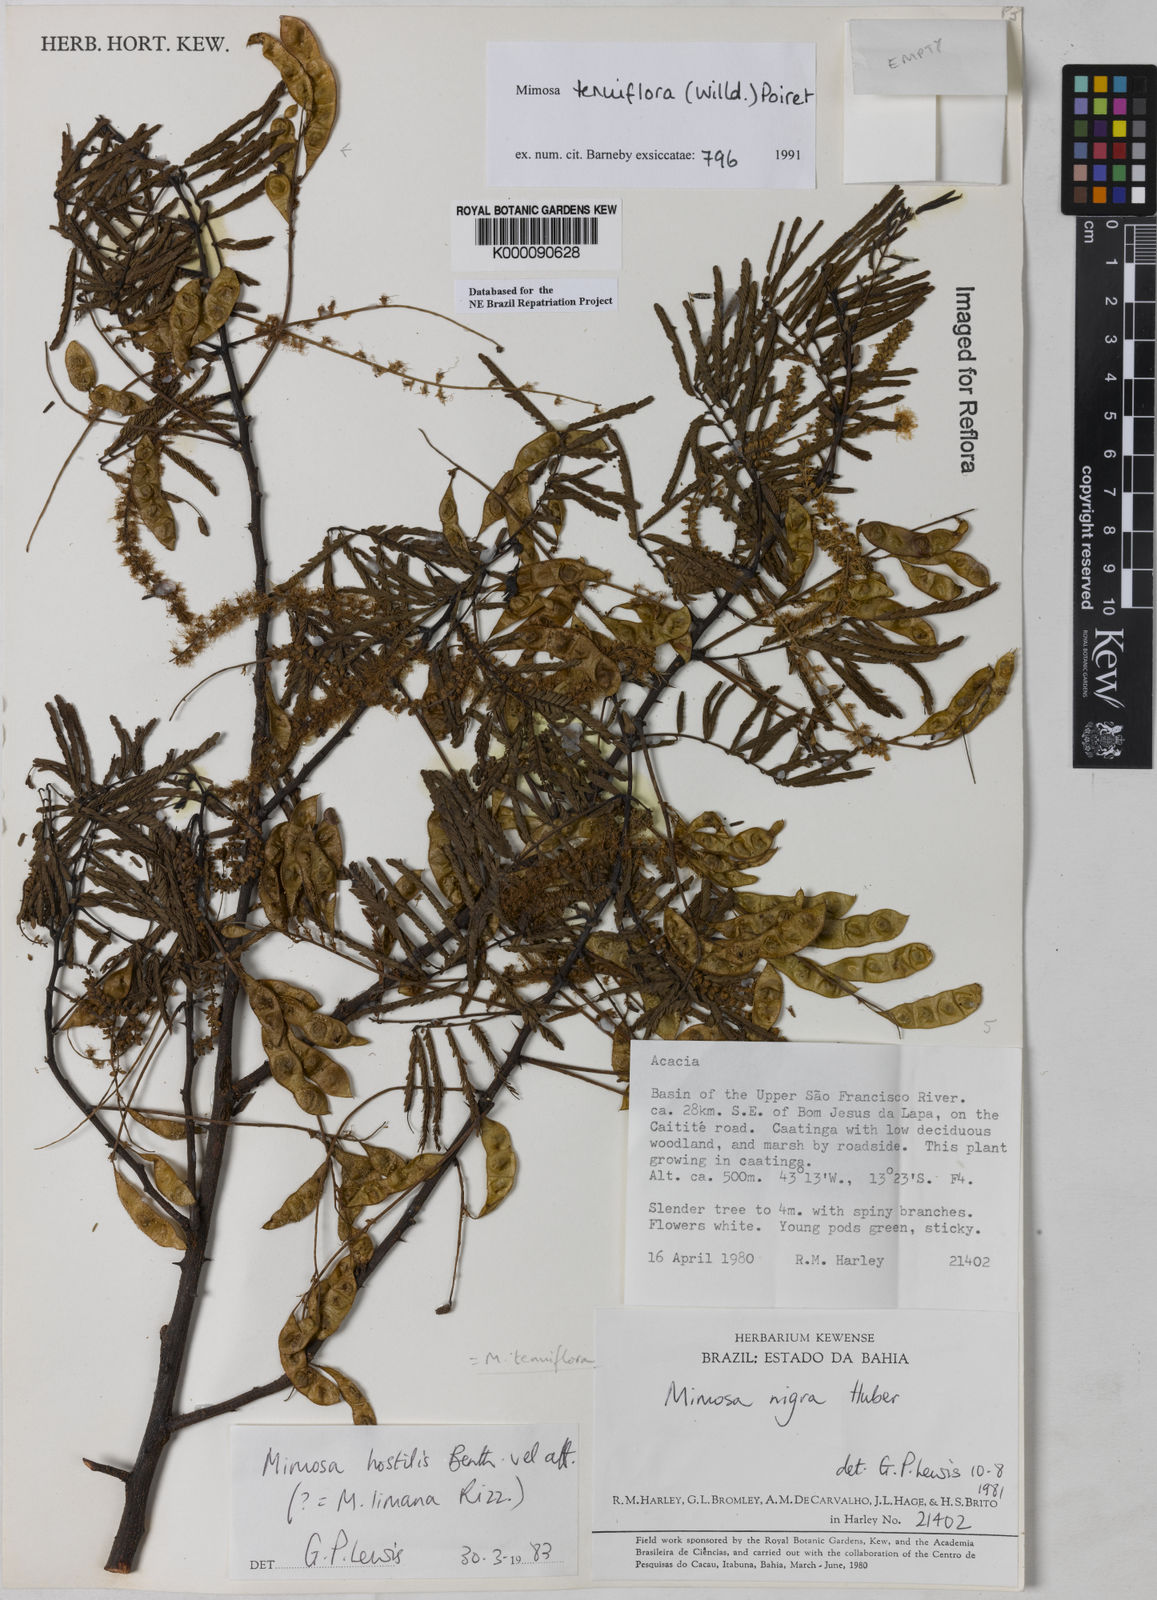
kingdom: Plantae
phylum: Tracheophyta
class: Magnoliopsida
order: Fabales
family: Fabaceae
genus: Mimosa
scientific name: Mimosa tenuiflora
